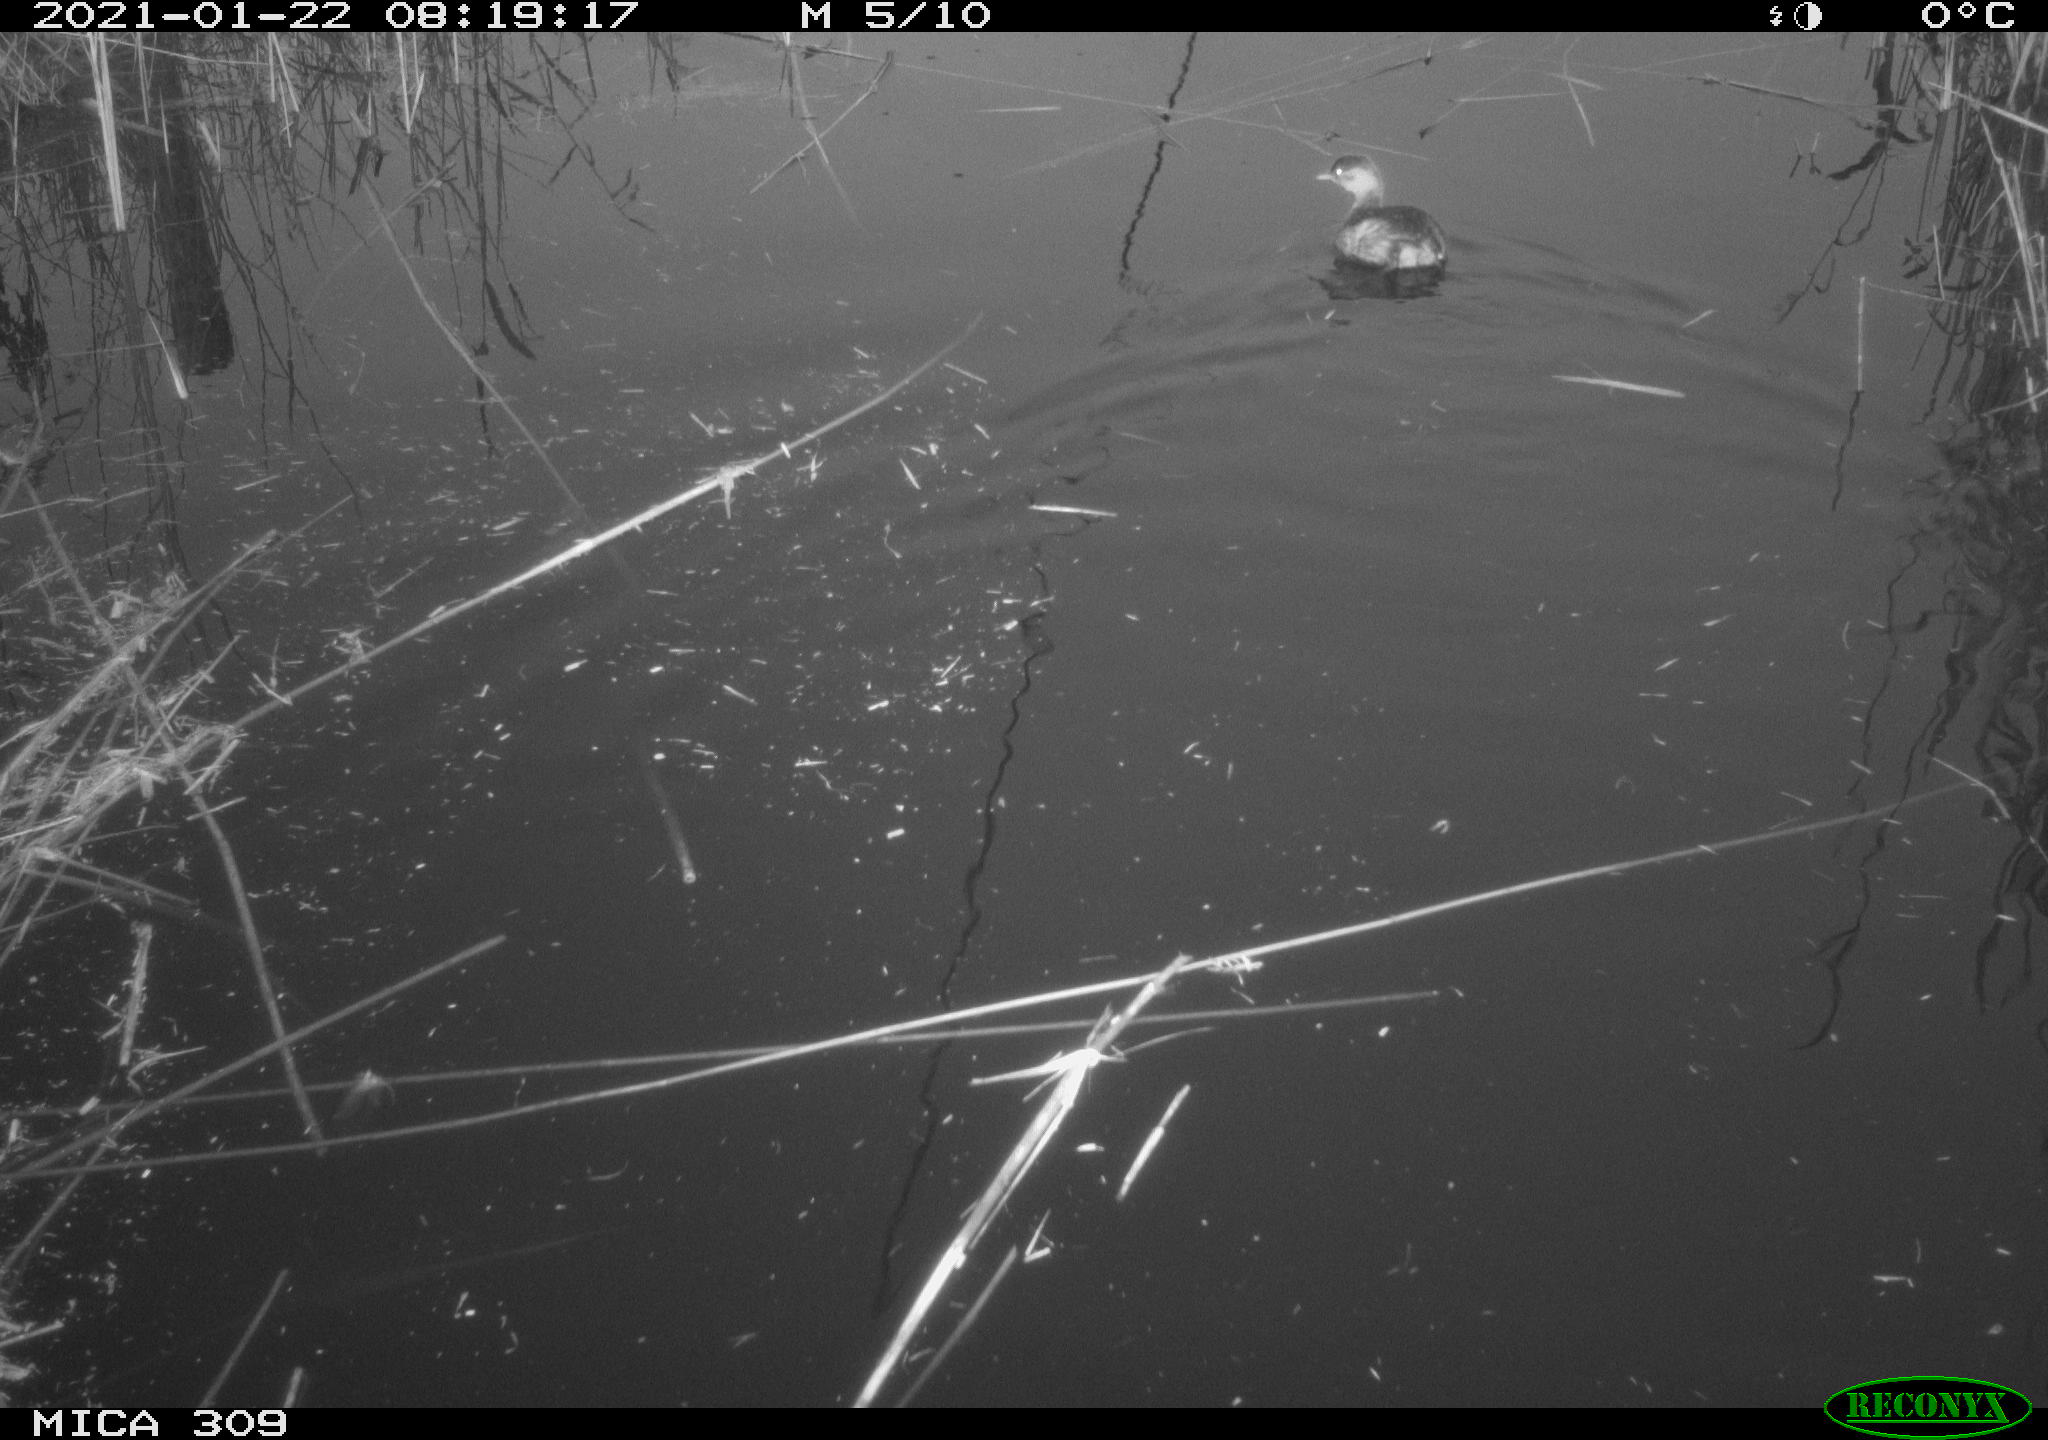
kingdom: Animalia
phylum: Chordata
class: Aves
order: Podicipediformes
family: Podicipedidae
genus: Tachybaptus
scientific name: Tachybaptus ruficollis
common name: Little grebe
